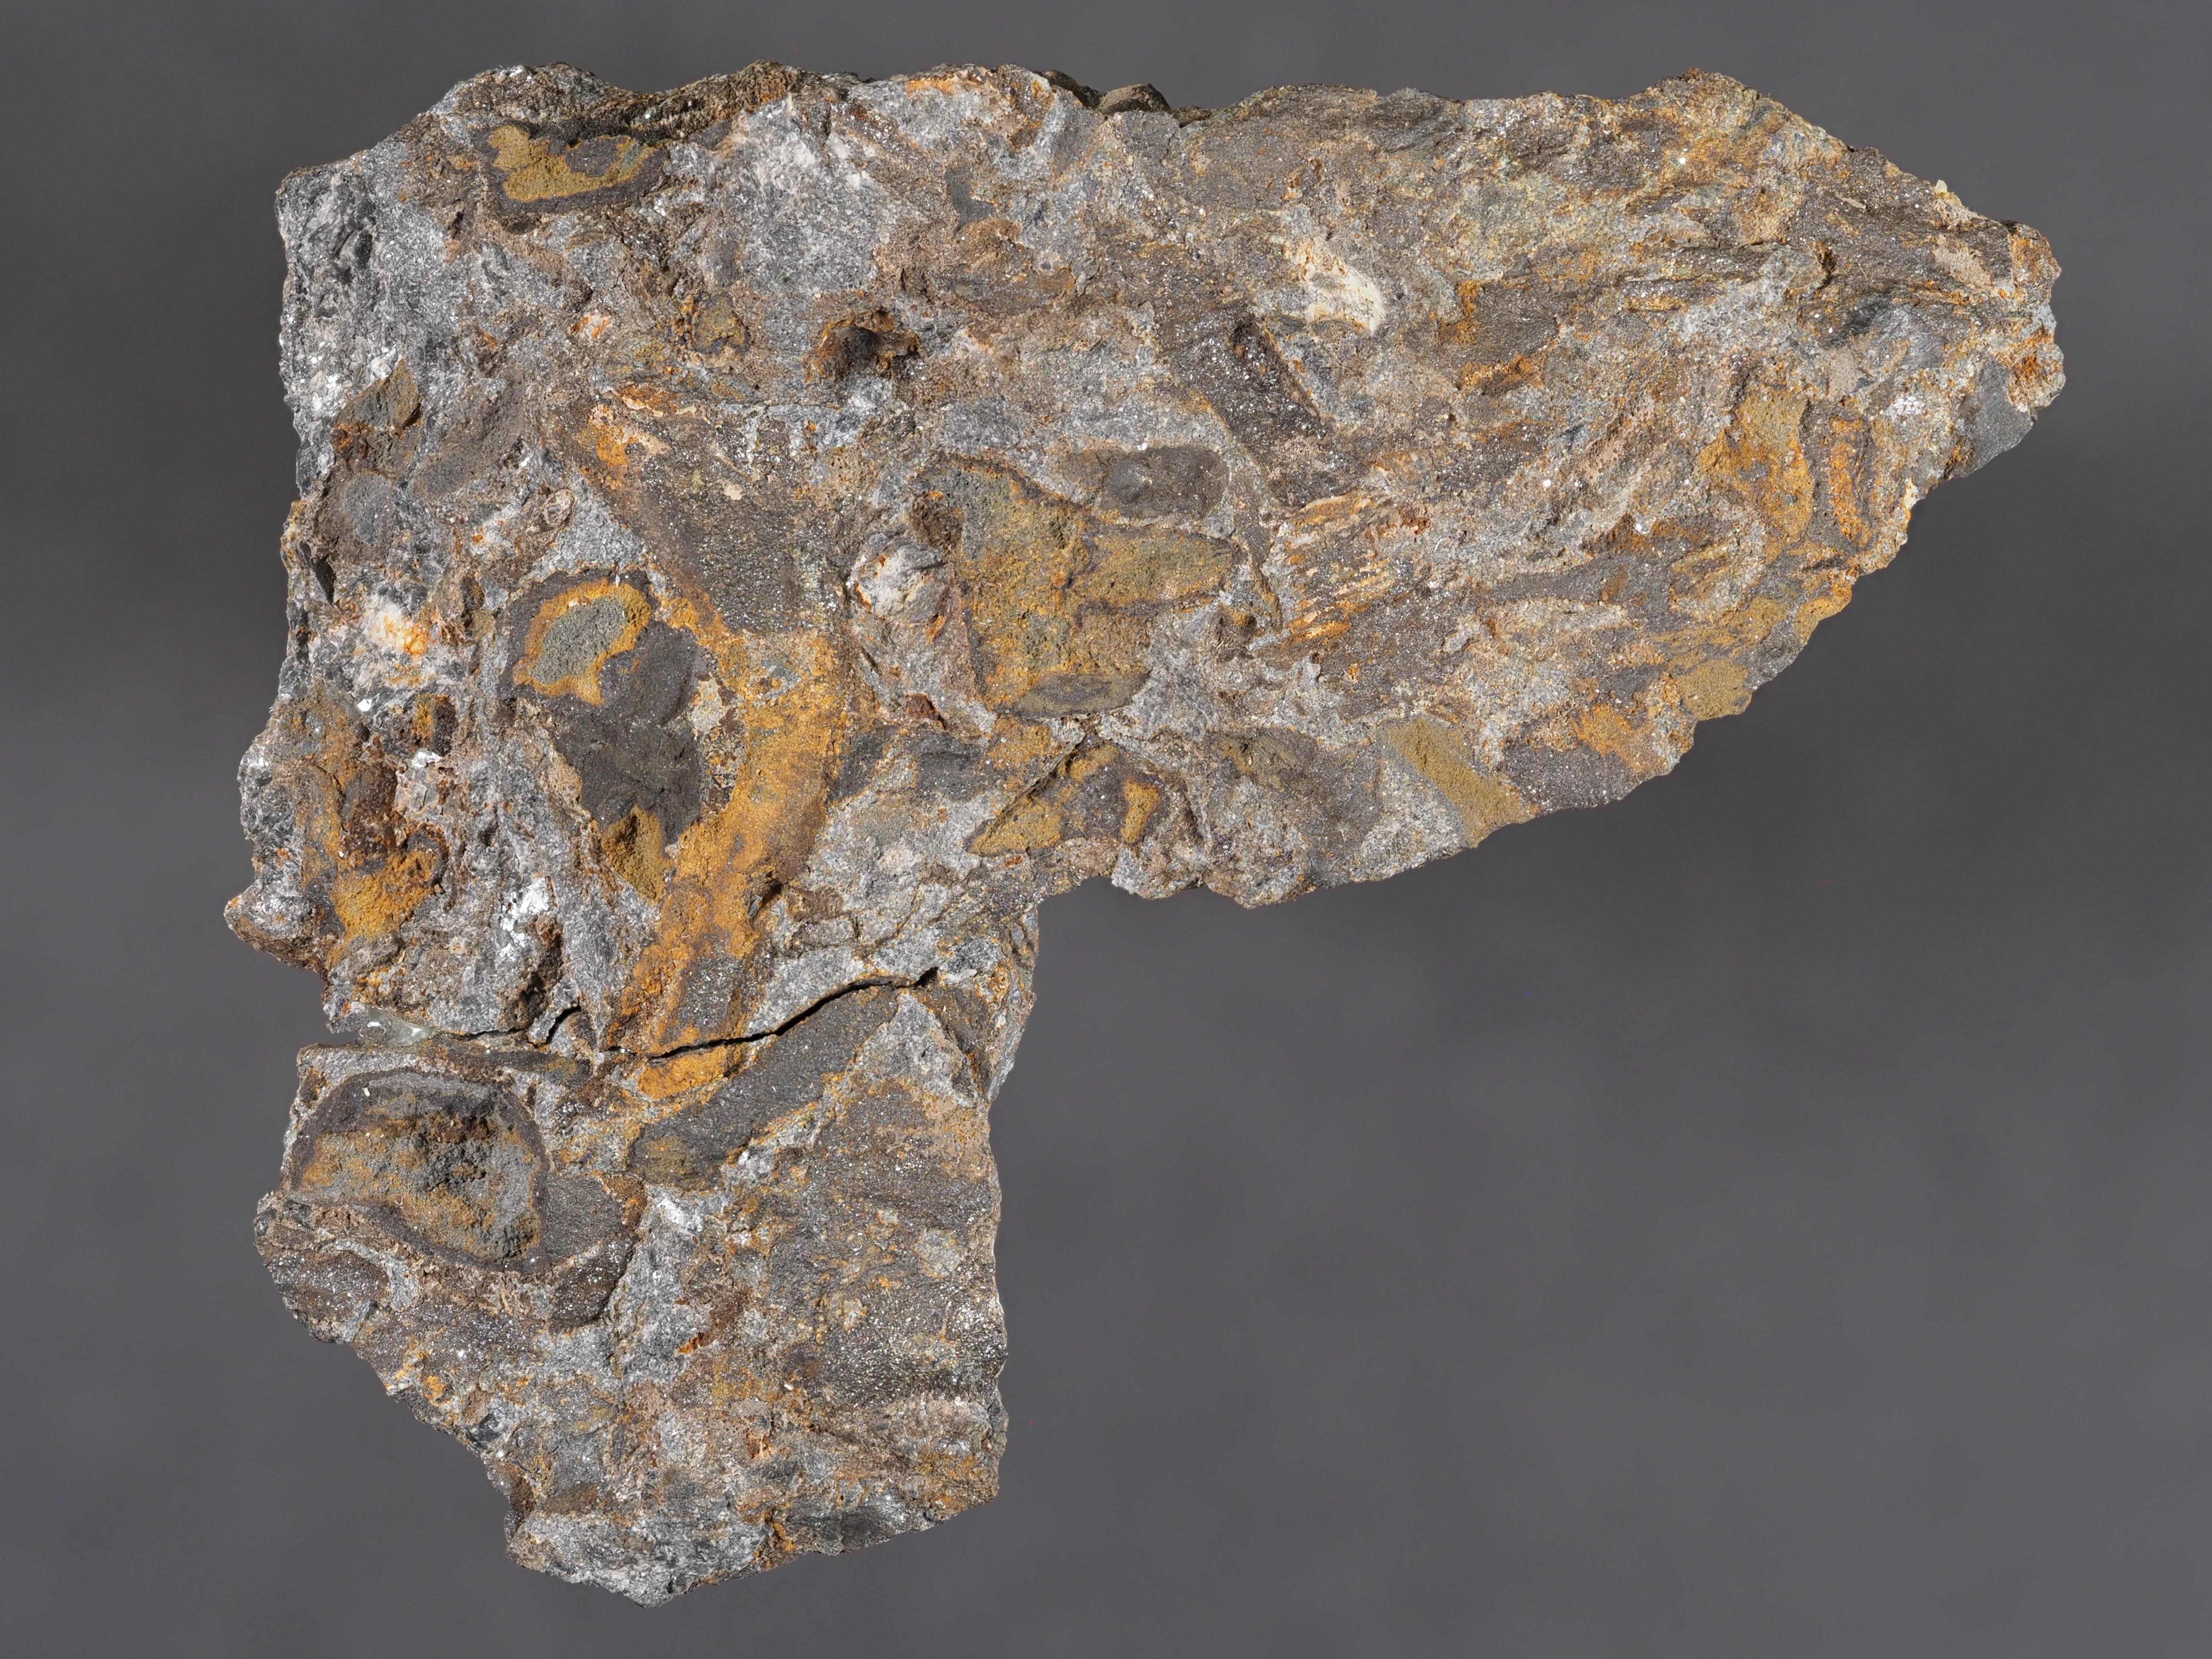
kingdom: Animalia
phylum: Mollusca
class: Bivalvia
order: Modiomorphida
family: Modiomorphidae
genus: Modiomorpha
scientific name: Modiomorpha
